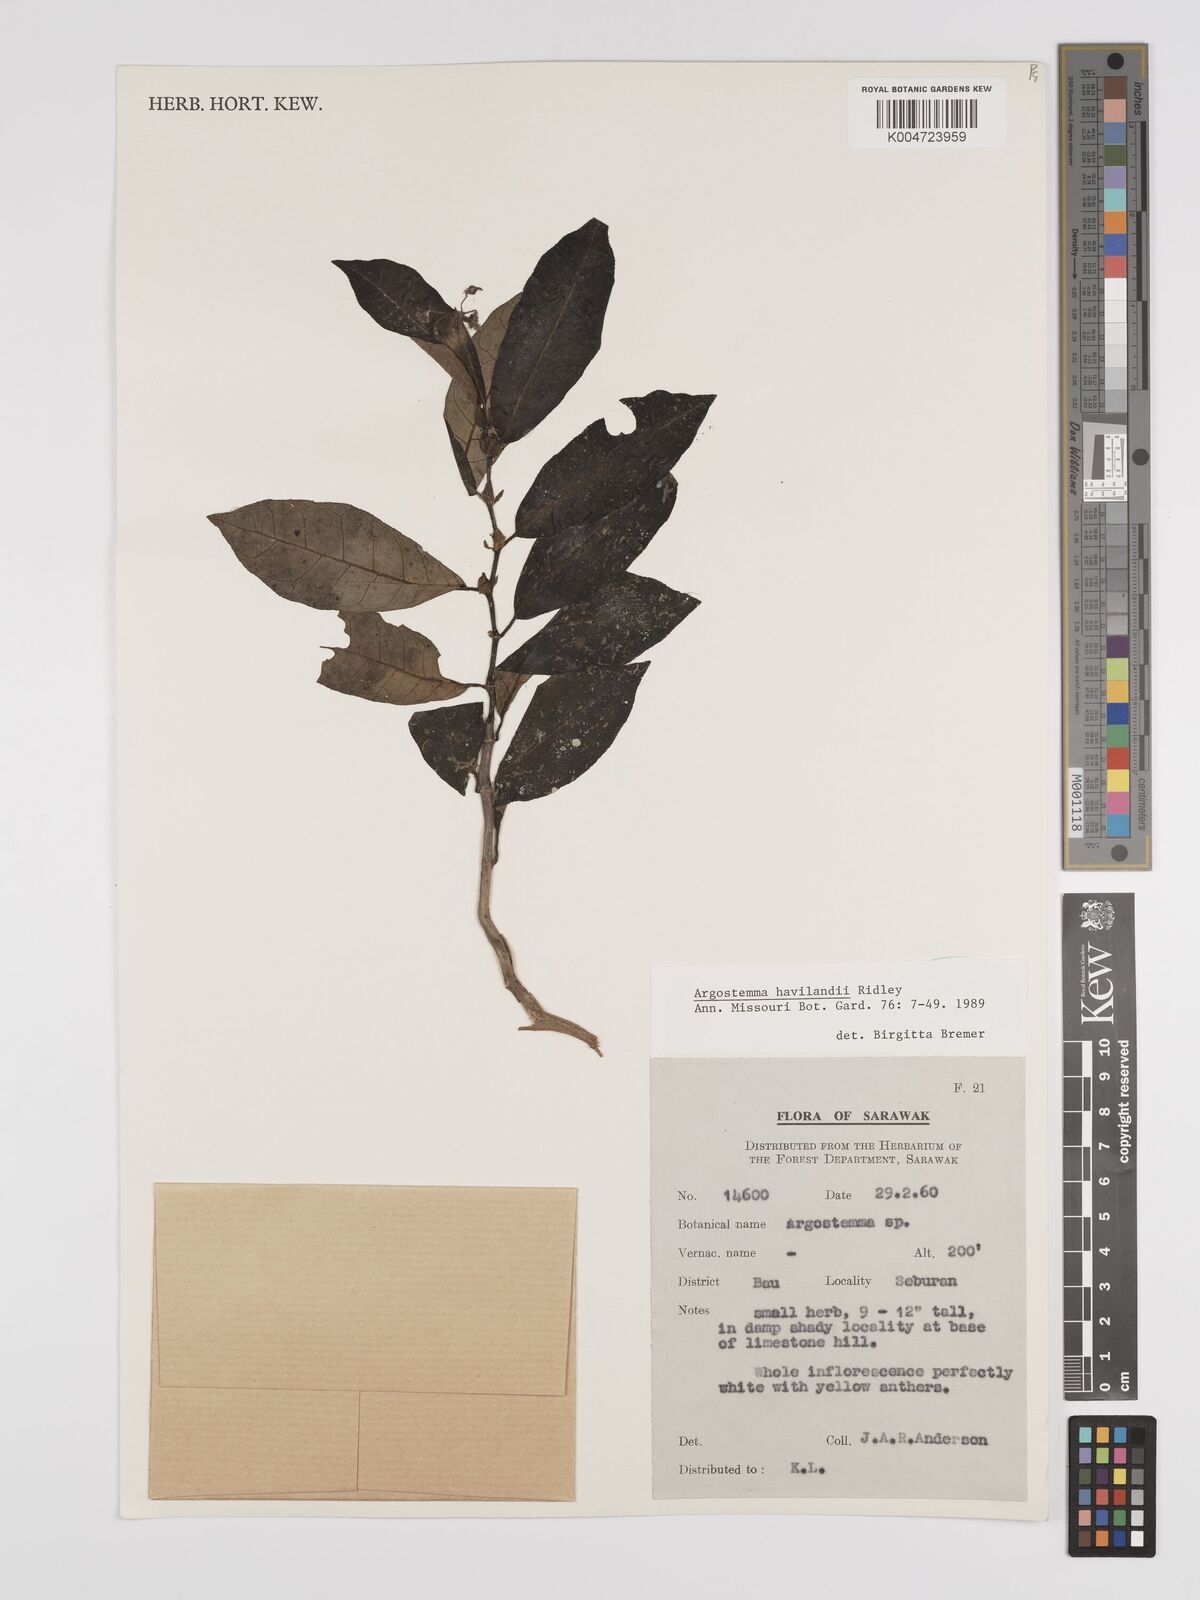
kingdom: Plantae
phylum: Tracheophyta
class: Magnoliopsida
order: Gentianales
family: Rubiaceae
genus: Argostemma
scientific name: Argostemma havilandii
